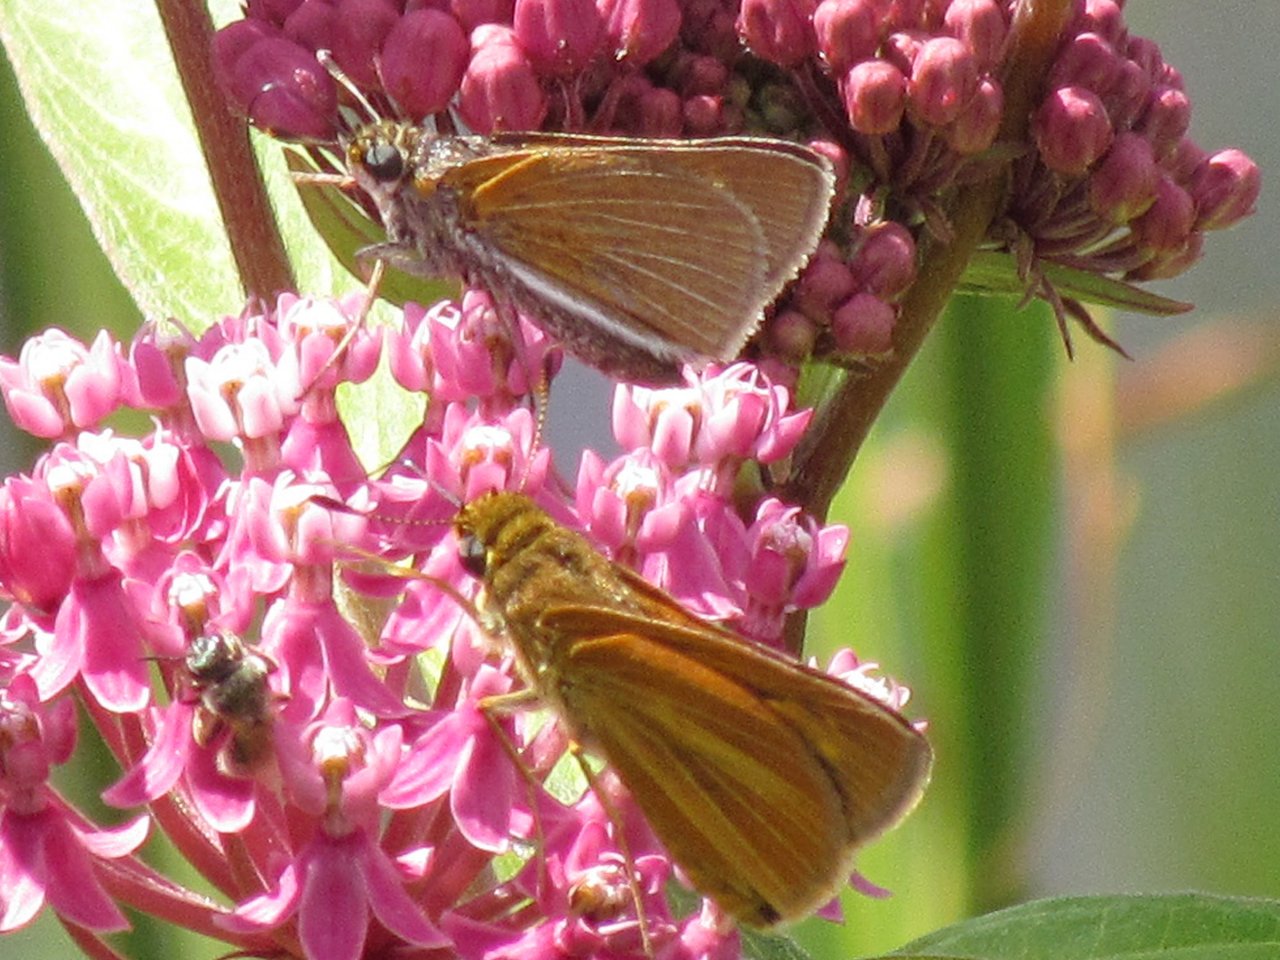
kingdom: Animalia
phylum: Arthropoda
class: Insecta
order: Lepidoptera
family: Hesperiidae
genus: Euphyes
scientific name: Euphyes bimacula
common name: Two-spotted Skipper
